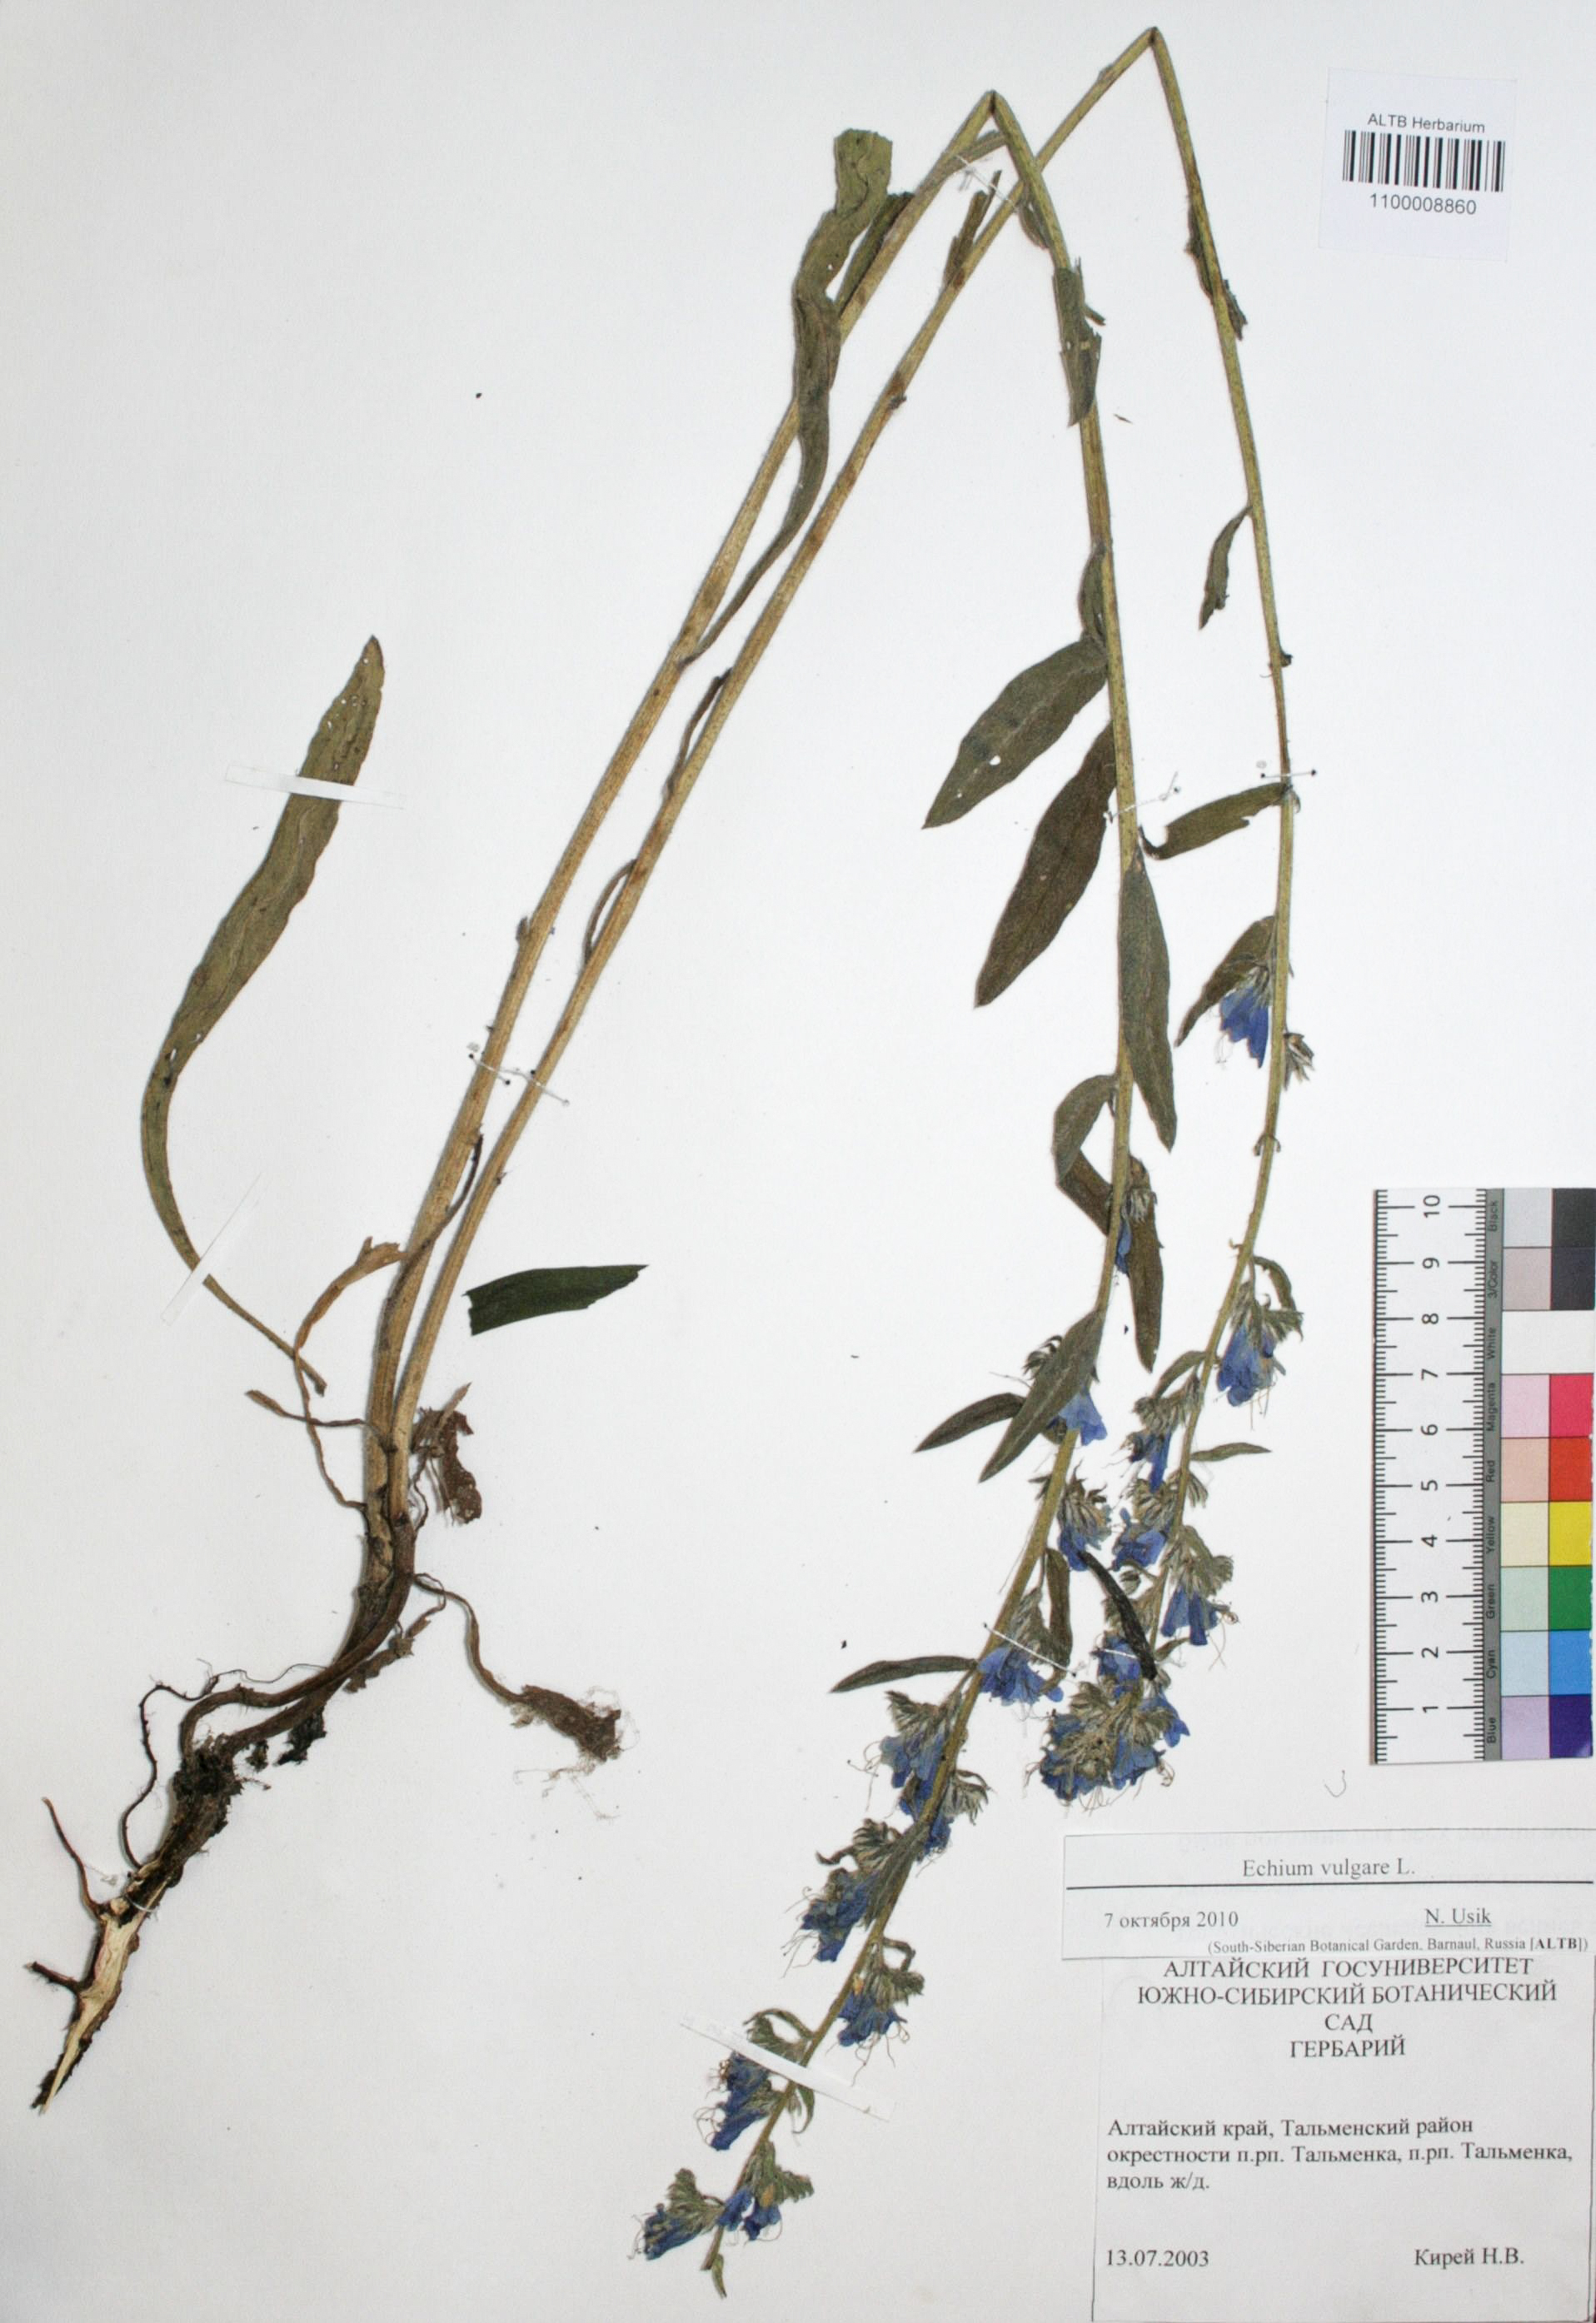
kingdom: Plantae
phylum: Tracheophyta
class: Magnoliopsida
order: Boraginales
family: Boraginaceae
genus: Echium
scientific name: Echium vulgare
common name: Common viper's bugloss
